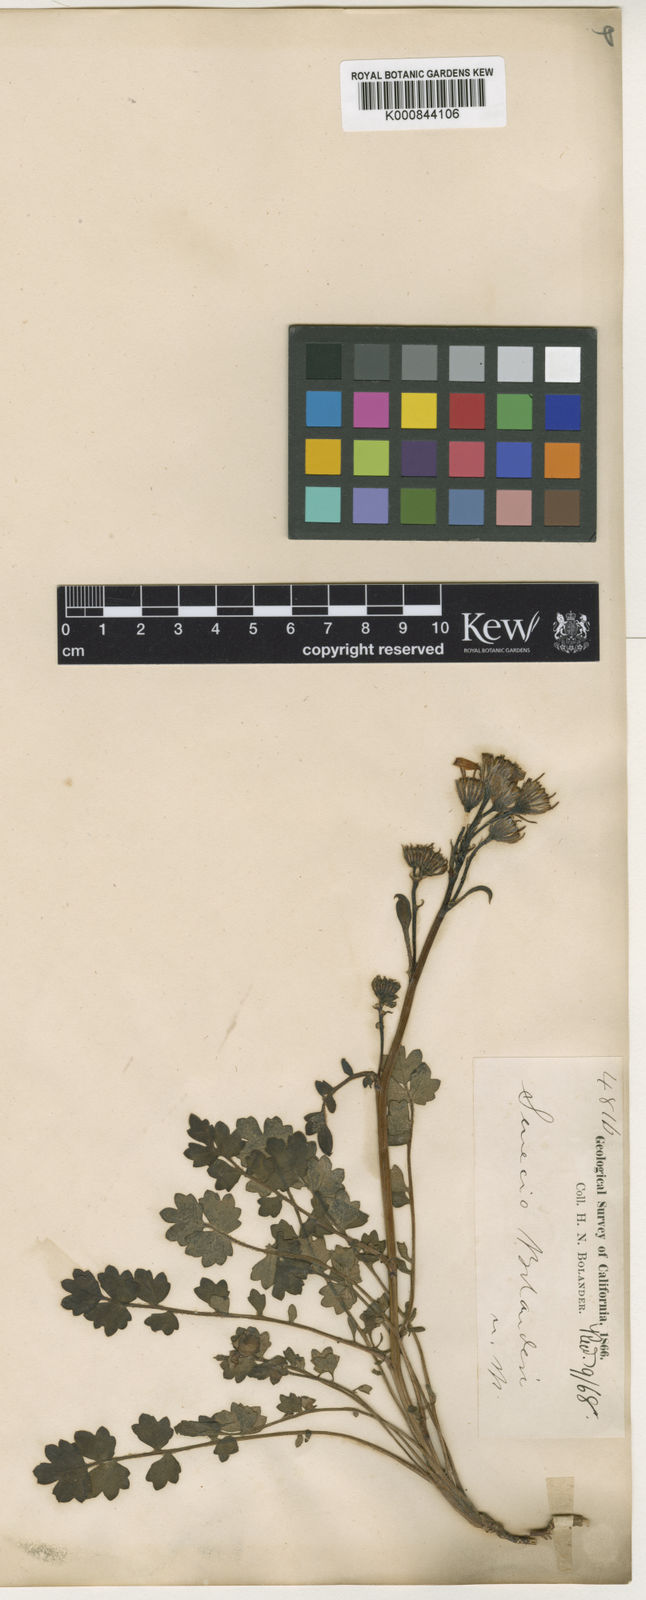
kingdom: Plantae
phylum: Tracheophyta
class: Magnoliopsida
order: Asterales
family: Asteraceae
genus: Packera
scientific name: Packera
